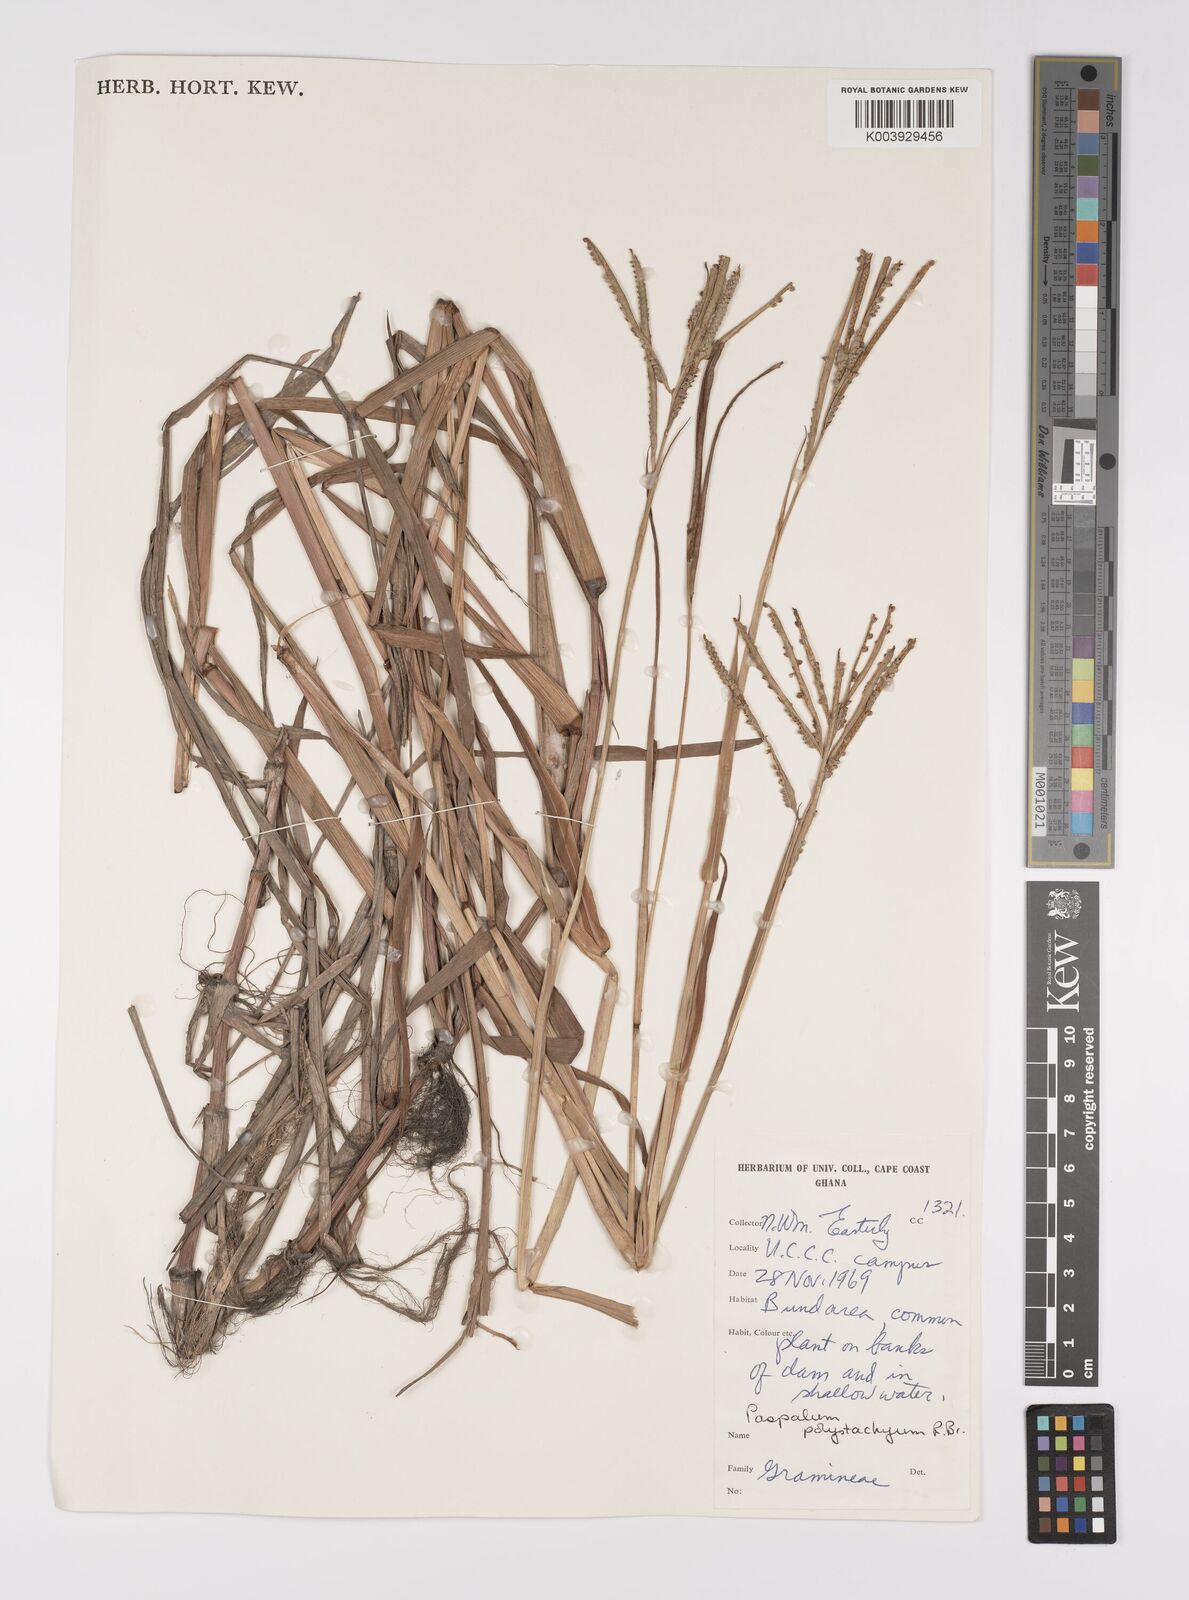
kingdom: Plantae
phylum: Tracheophyta
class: Liliopsida
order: Poales
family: Poaceae
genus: Paspalum
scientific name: Paspalum scrobiculatum
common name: Kodo millet
